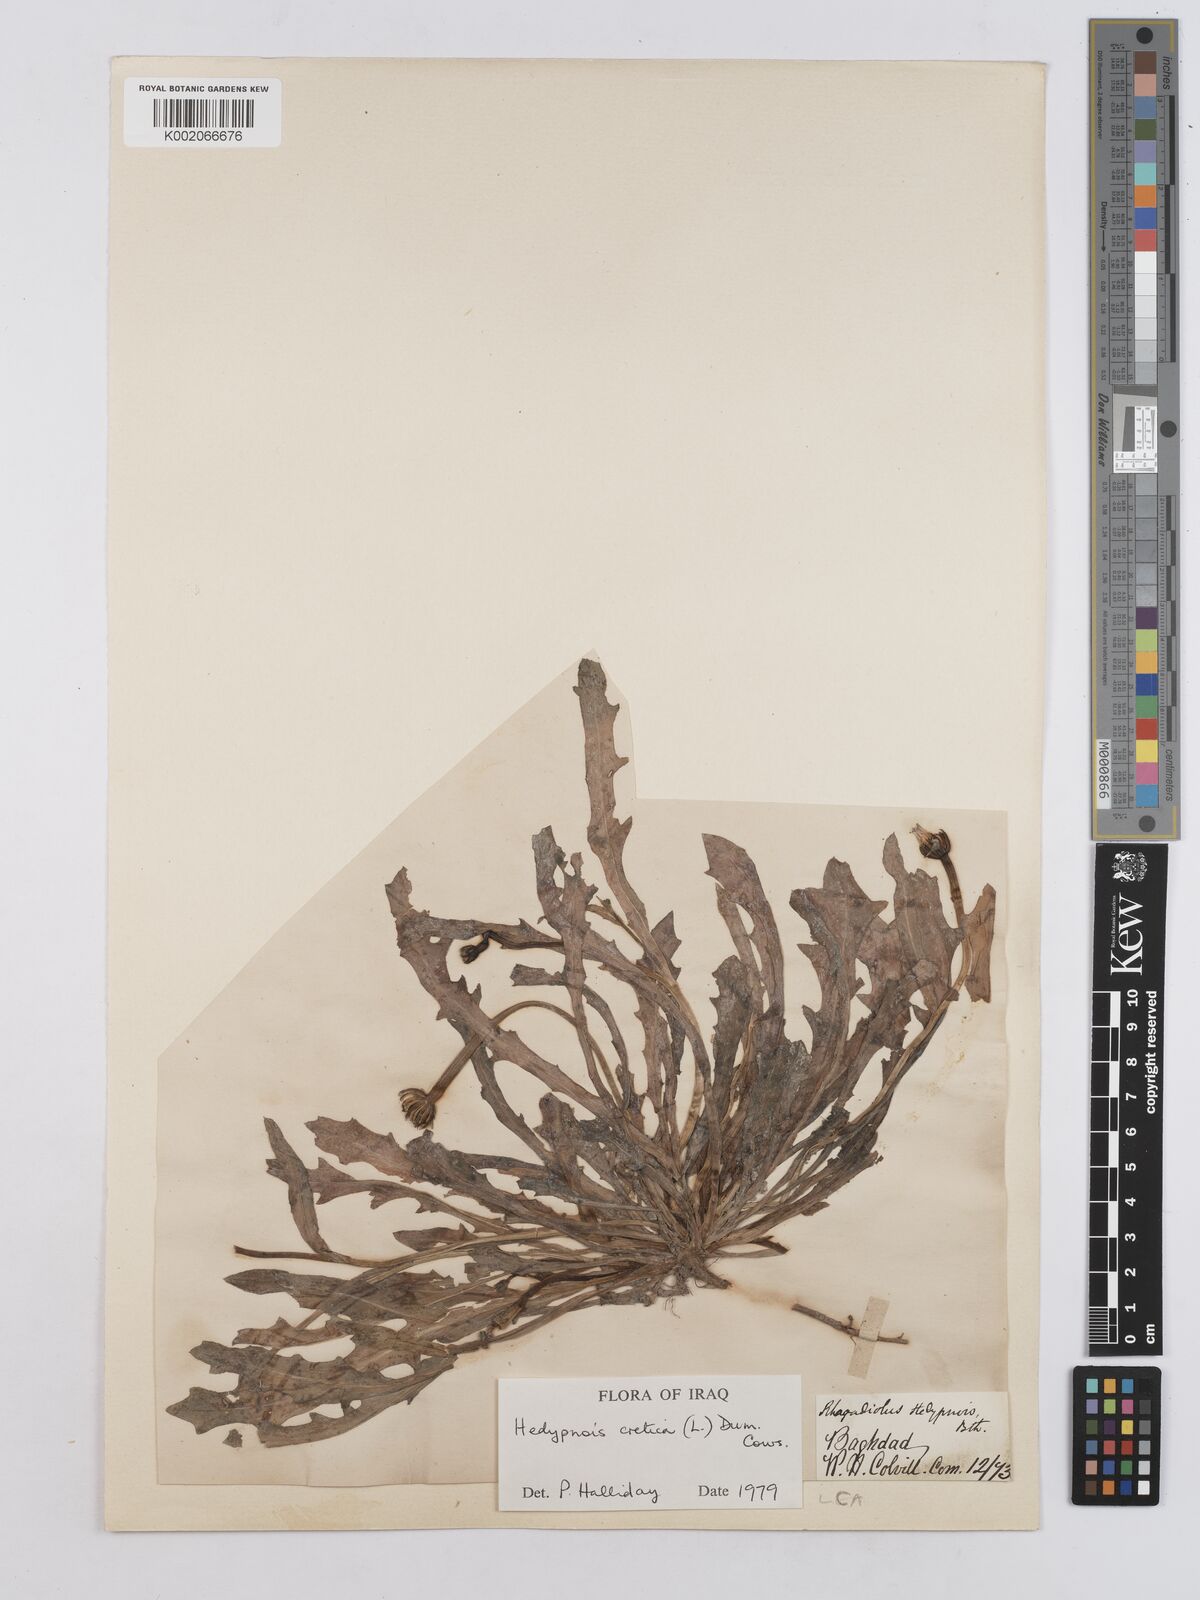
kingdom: Plantae
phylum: Tracheophyta
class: Magnoliopsida
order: Asterales
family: Asteraceae
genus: Hedypnois
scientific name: Hedypnois cretica
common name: Scaly hawkbit
